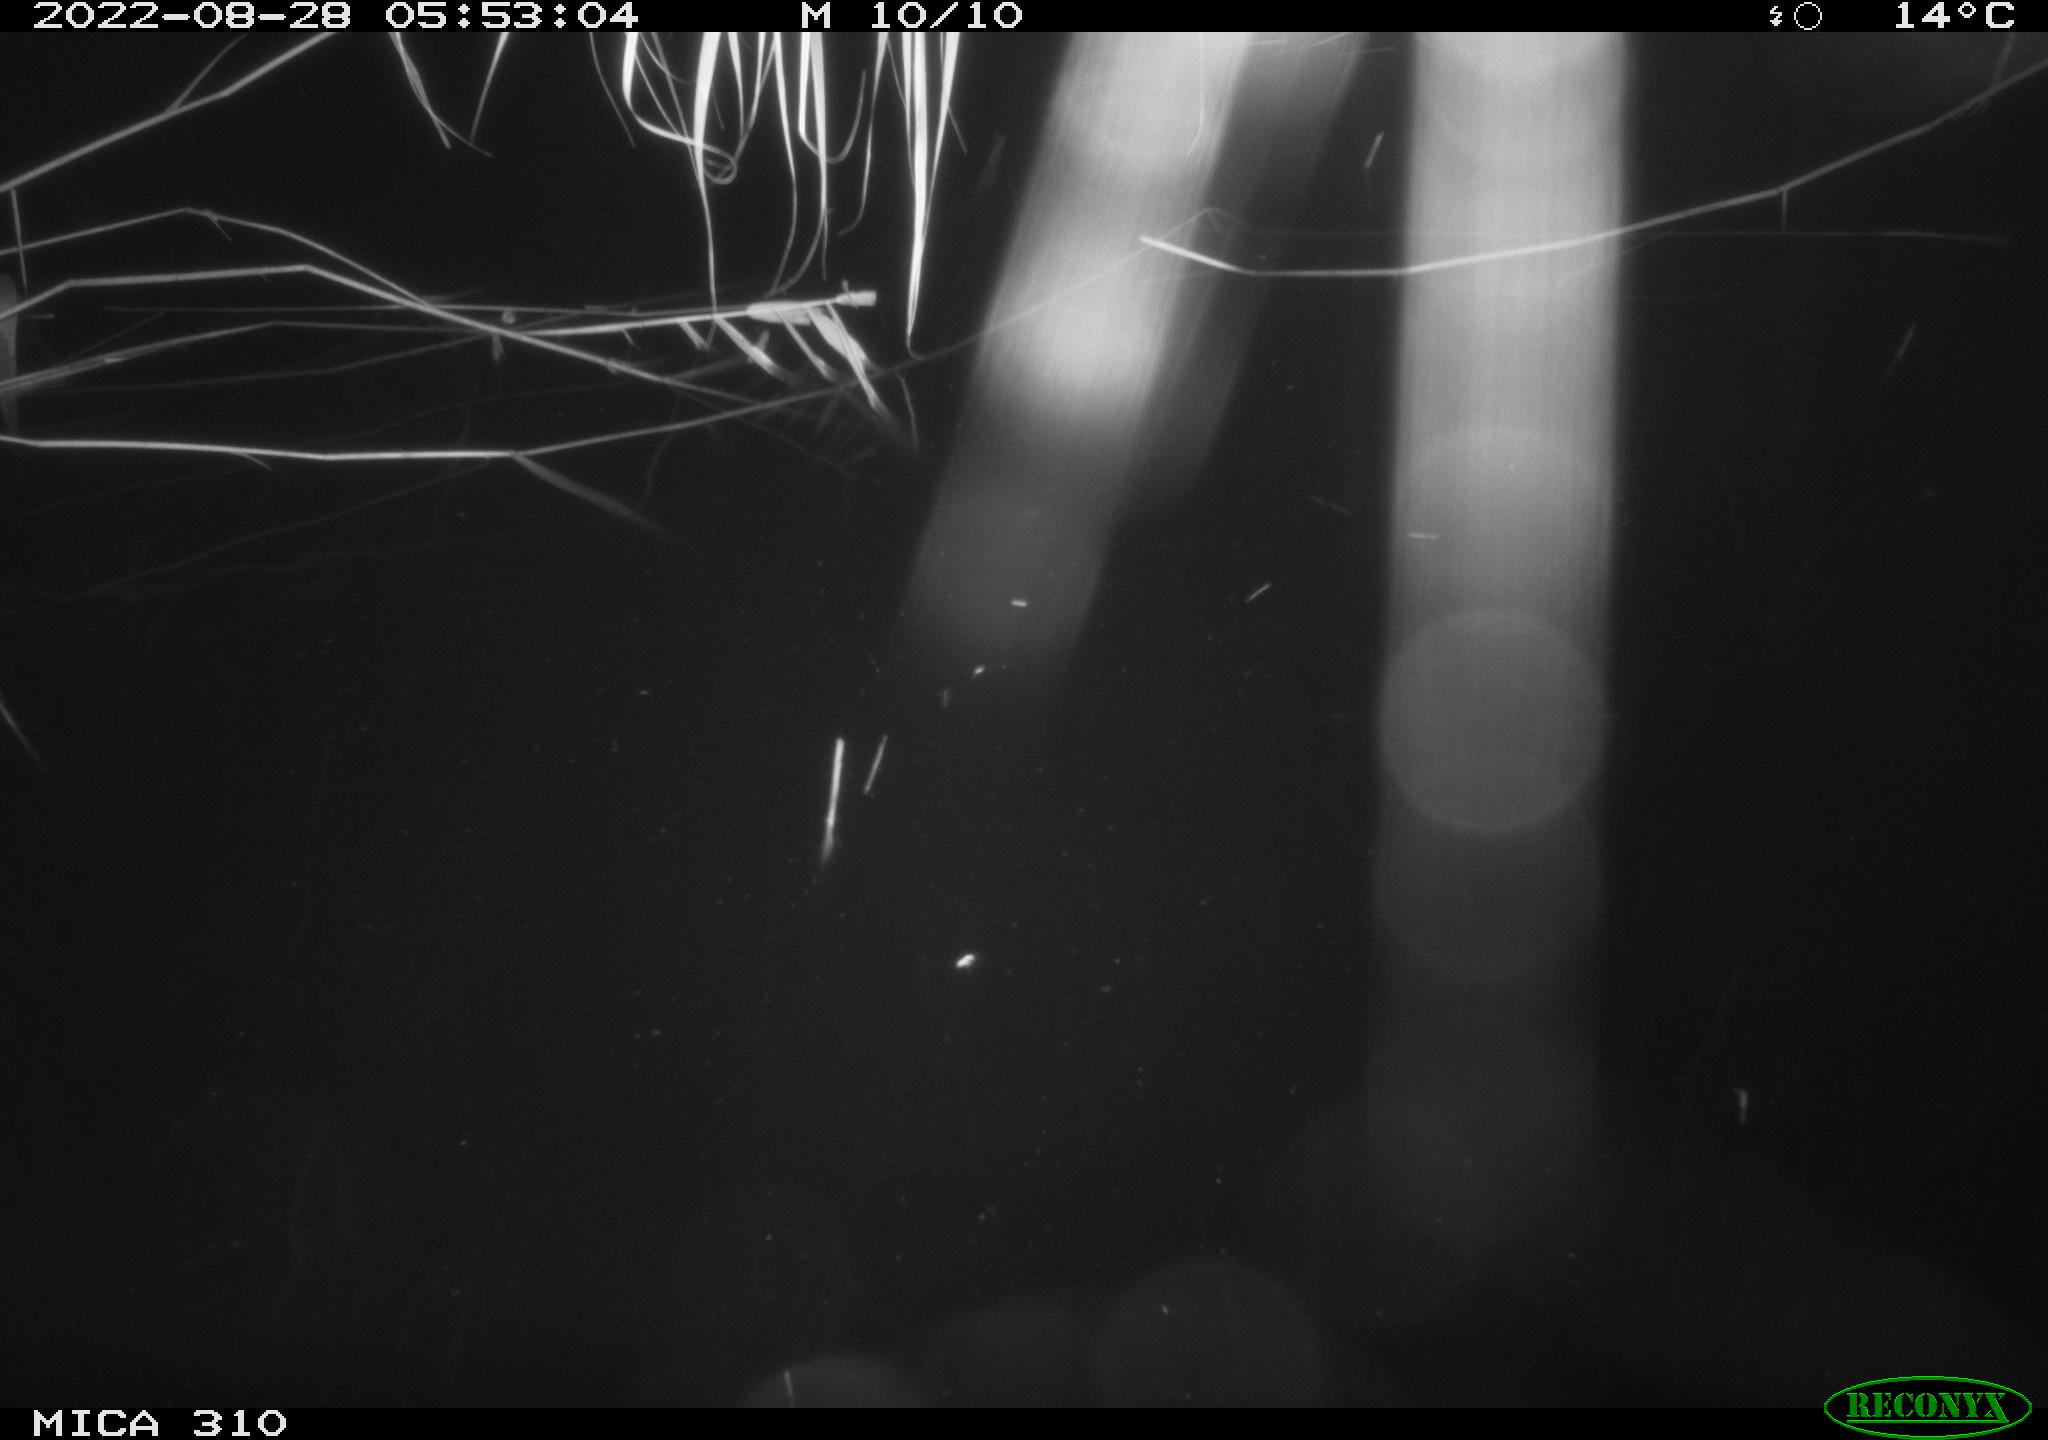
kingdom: Animalia
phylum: Chordata
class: Aves
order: Anseriformes
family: Anatidae
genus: Anas
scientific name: Anas platyrhynchos
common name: Mallard
